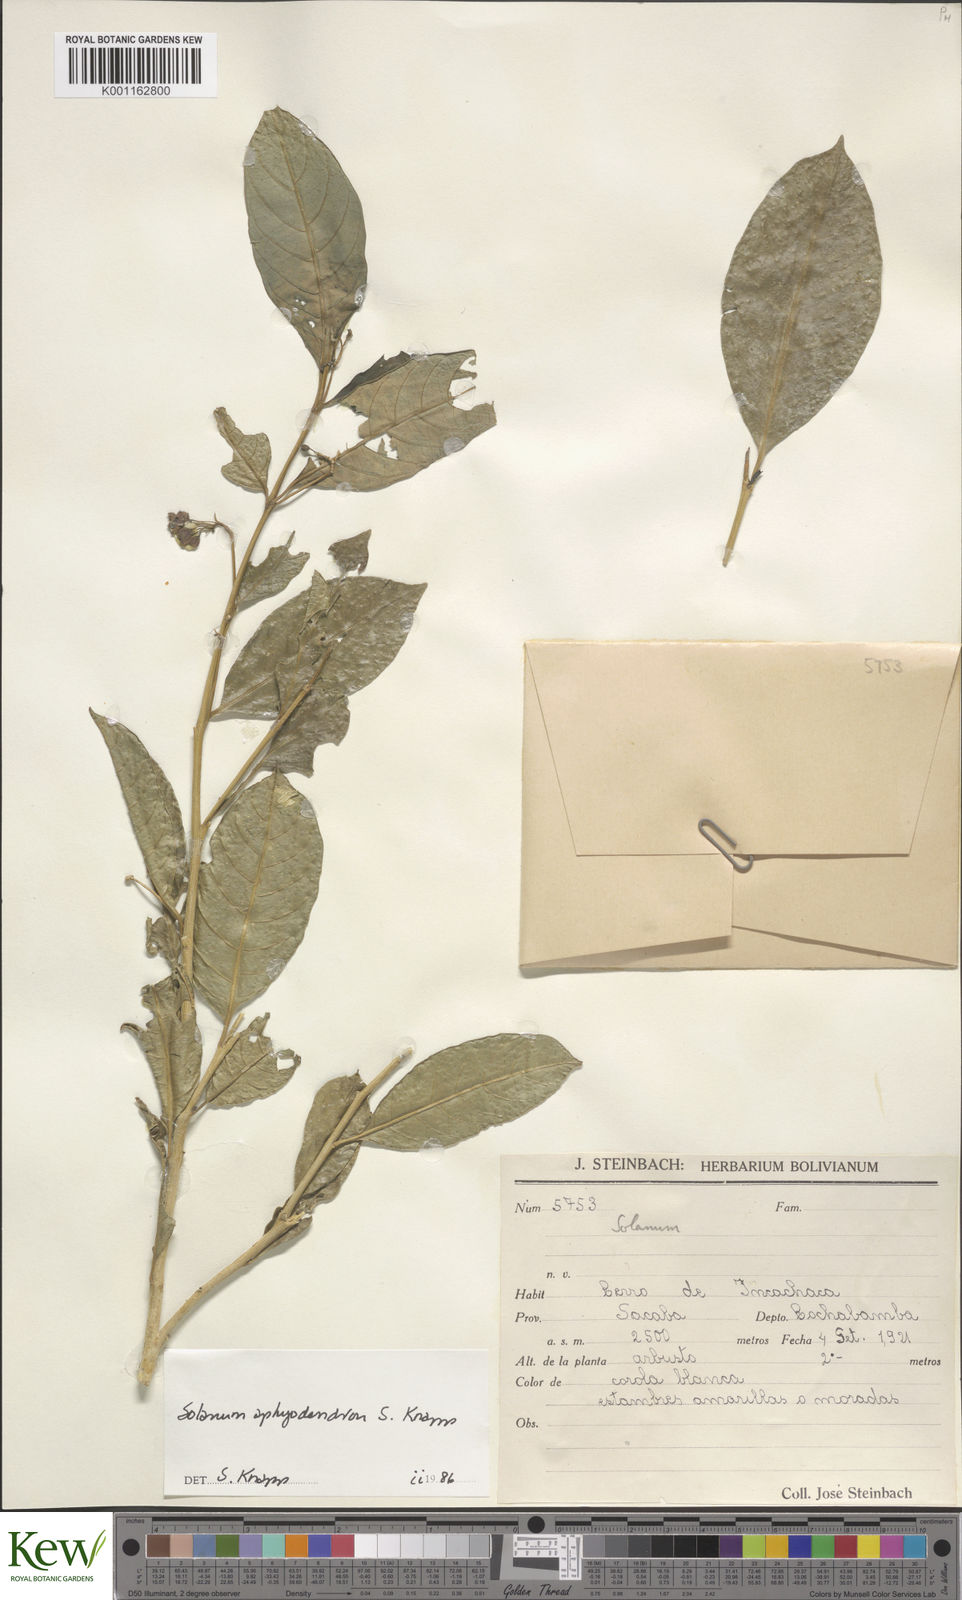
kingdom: Plantae
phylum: Tracheophyta
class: Magnoliopsida
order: Solanales
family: Solanaceae
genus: Solanum
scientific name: Solanum aphyodendron
